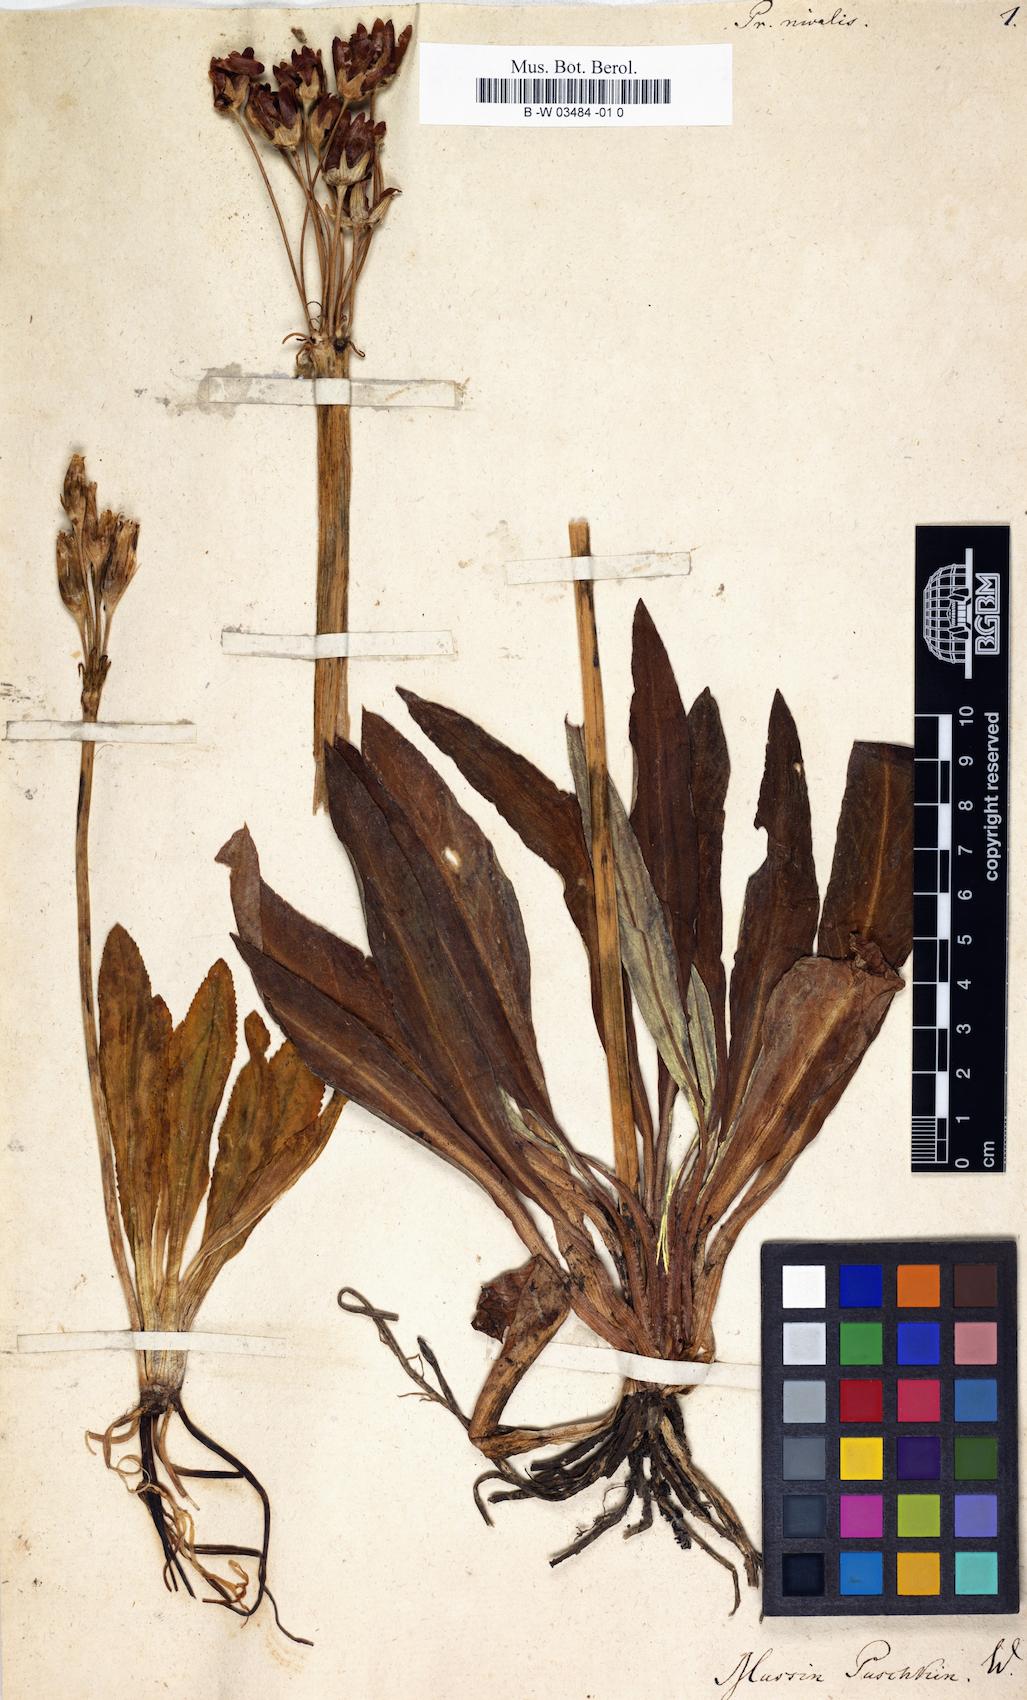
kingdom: Plantae
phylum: Tracheophyta
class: Magnoliopsida
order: Ericales
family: Primulaceae
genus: Primula
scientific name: Primula nivalis
